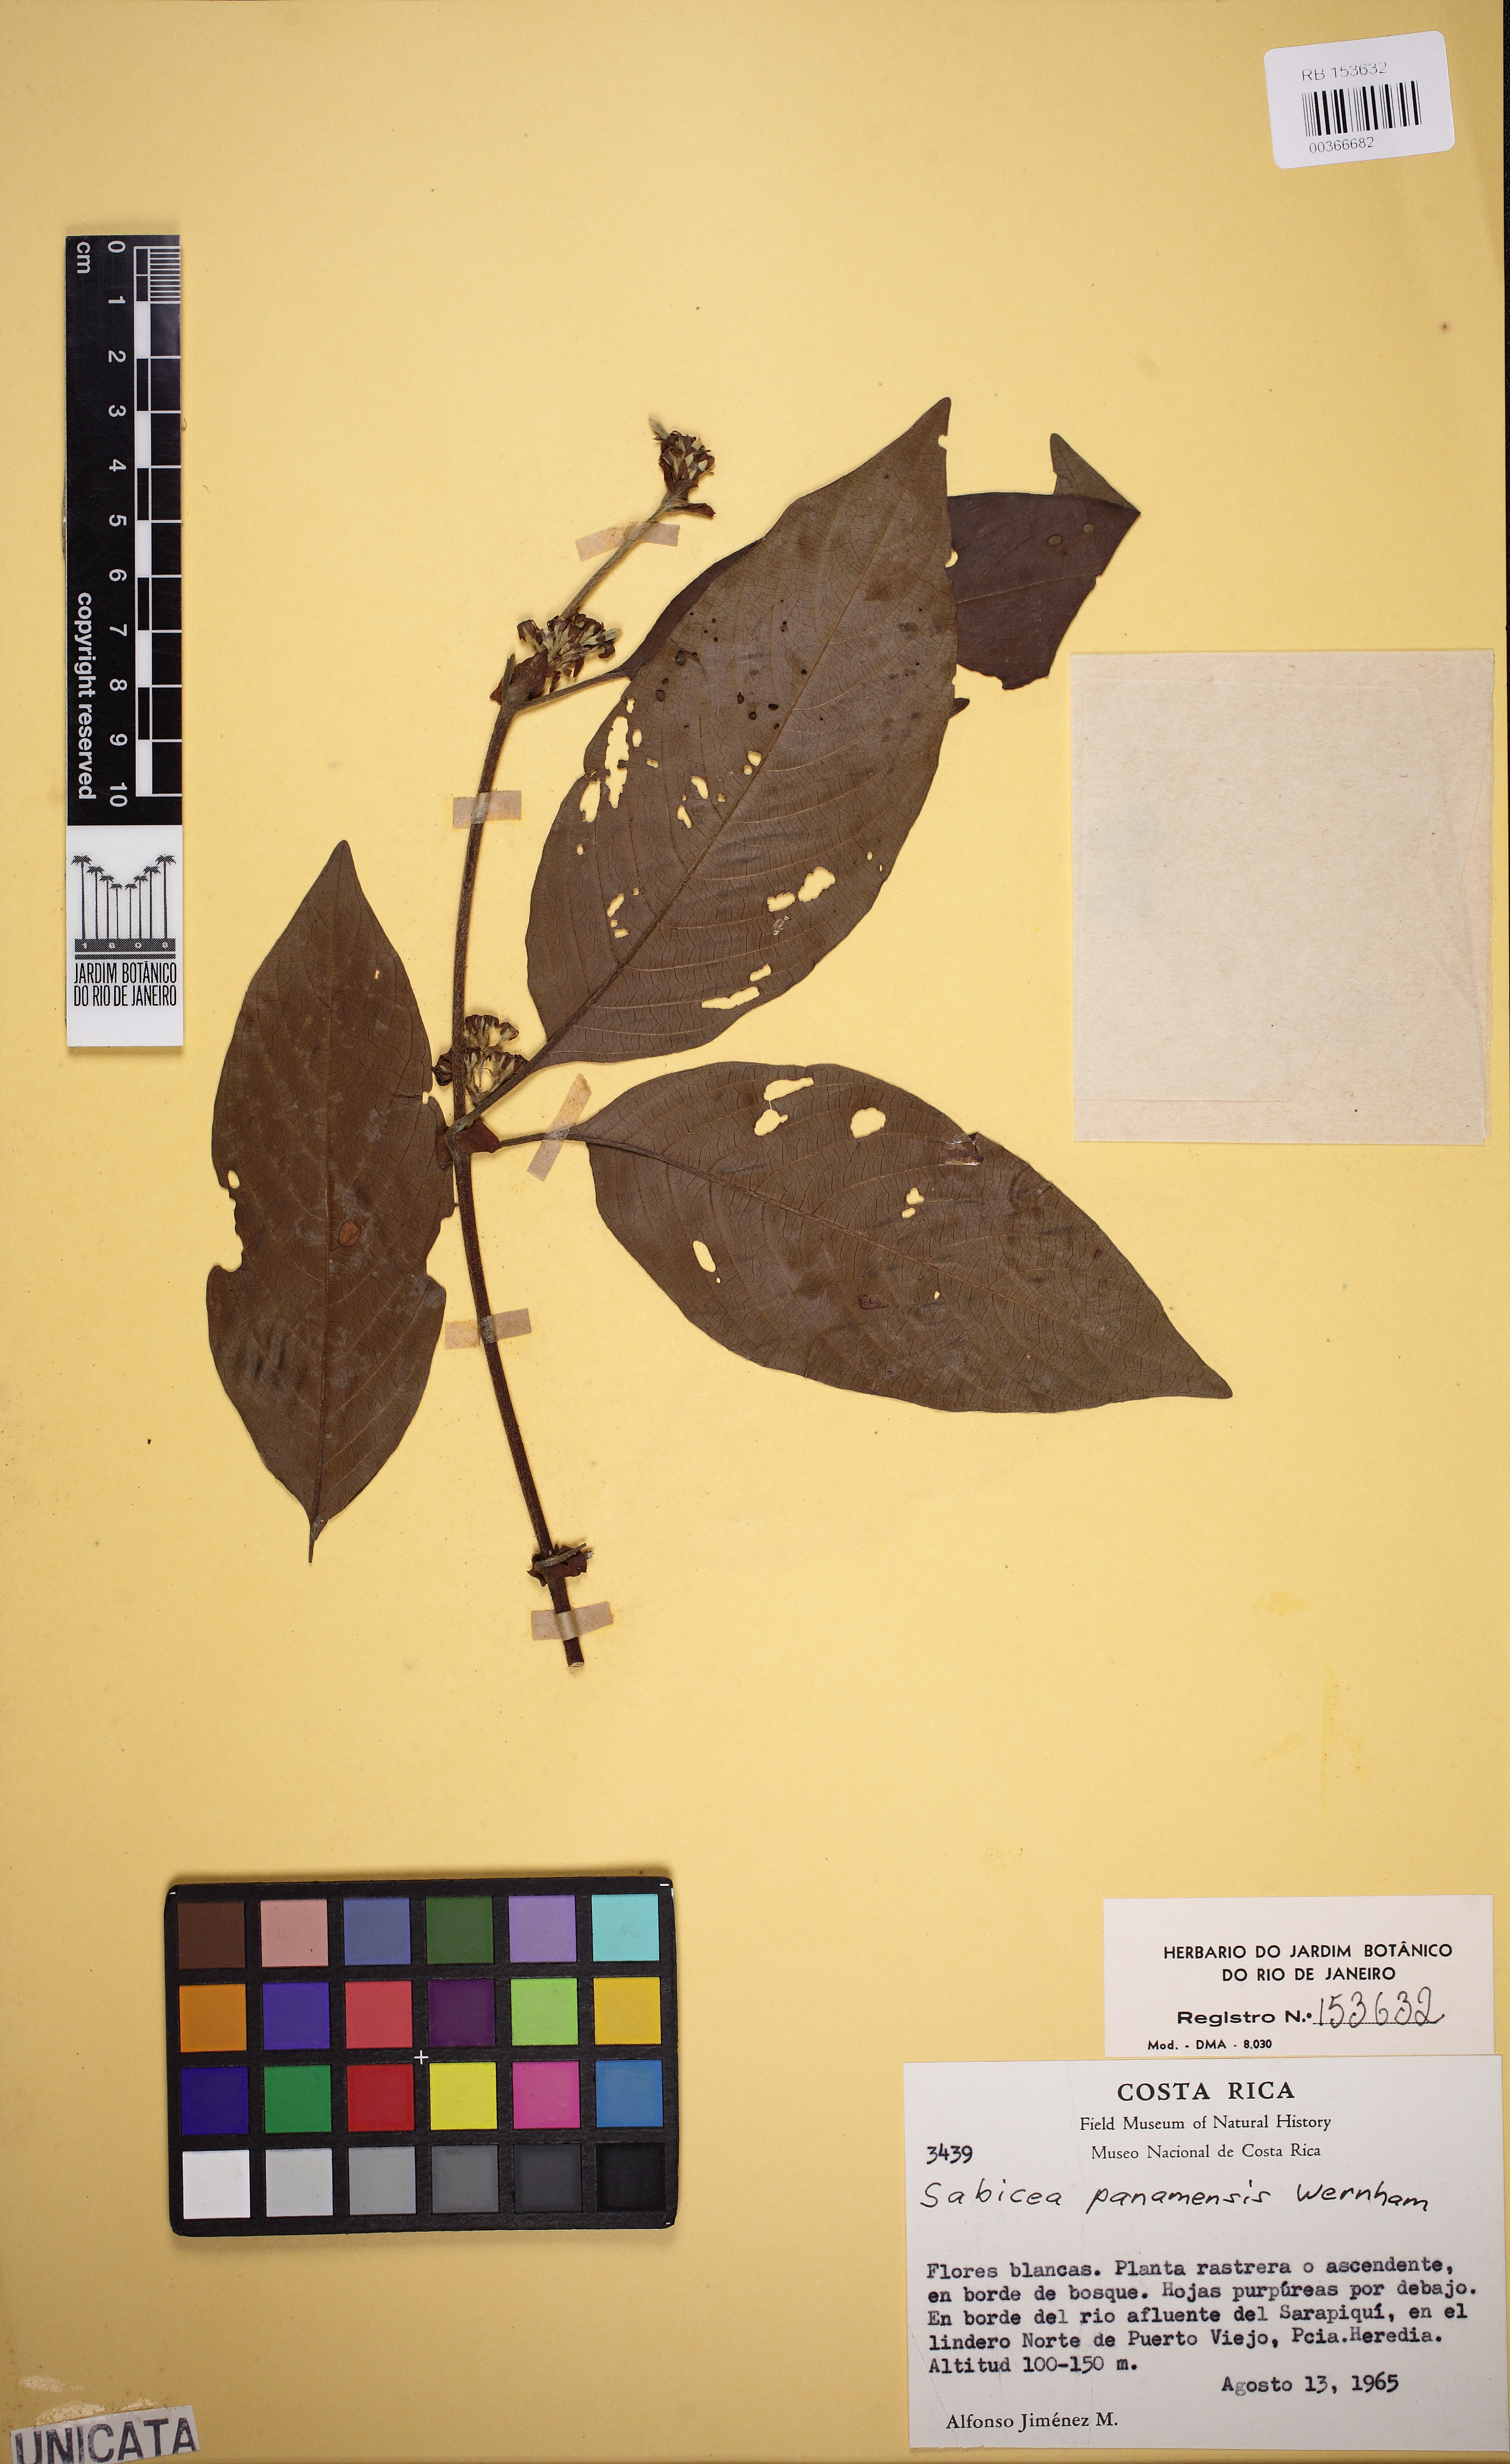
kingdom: Plantae
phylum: Tracheophyta
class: Magnoliopsida
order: Gentianales
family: Rubiaceae
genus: Sabicea
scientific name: Sabicea panamensis
